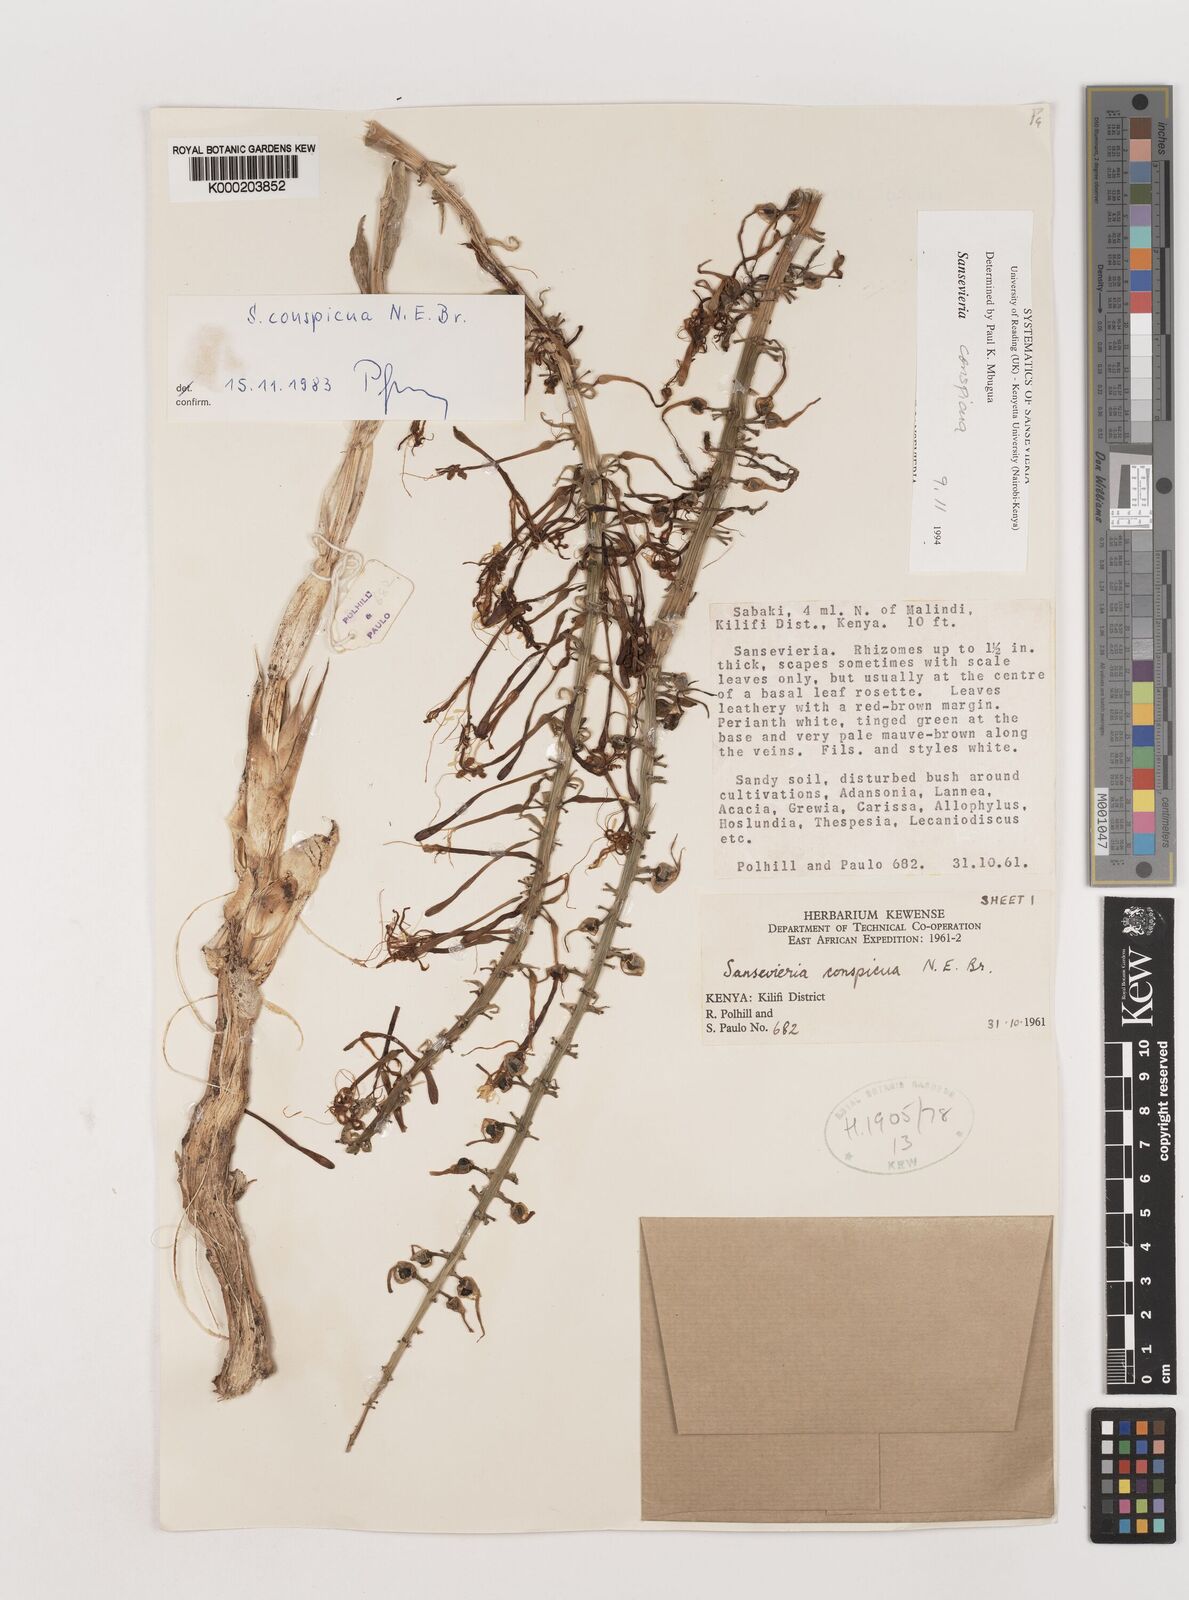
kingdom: Plantae
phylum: Tracheophyta
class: Liliopsida
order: Asparagales
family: Asparagaceae
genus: Dracaena
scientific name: Dracaena conspicua
